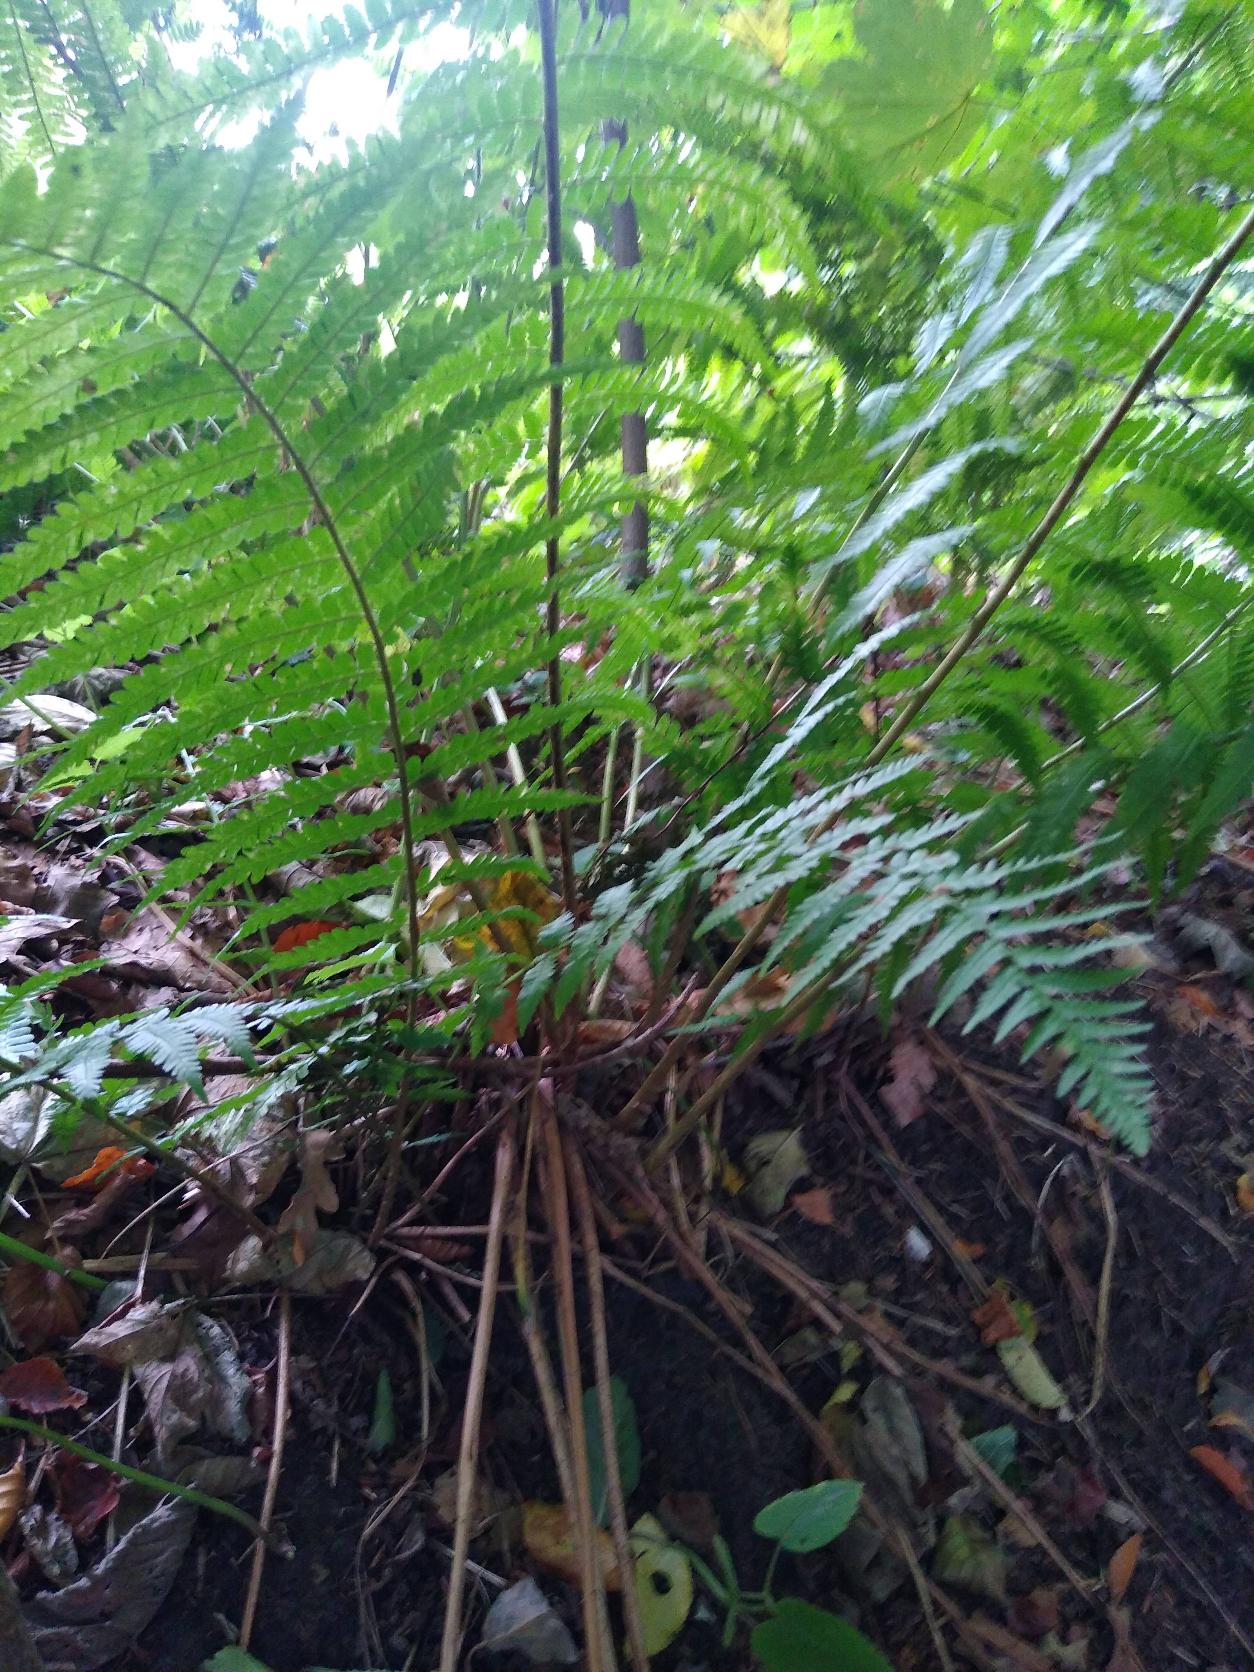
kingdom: Plantae
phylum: Tracheophyta
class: Polypodiopsida
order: Polypodiales
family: Dryopteridaceae
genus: Dryopteris
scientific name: Dryopteris filix-mas
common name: Almindelig mangeløv
